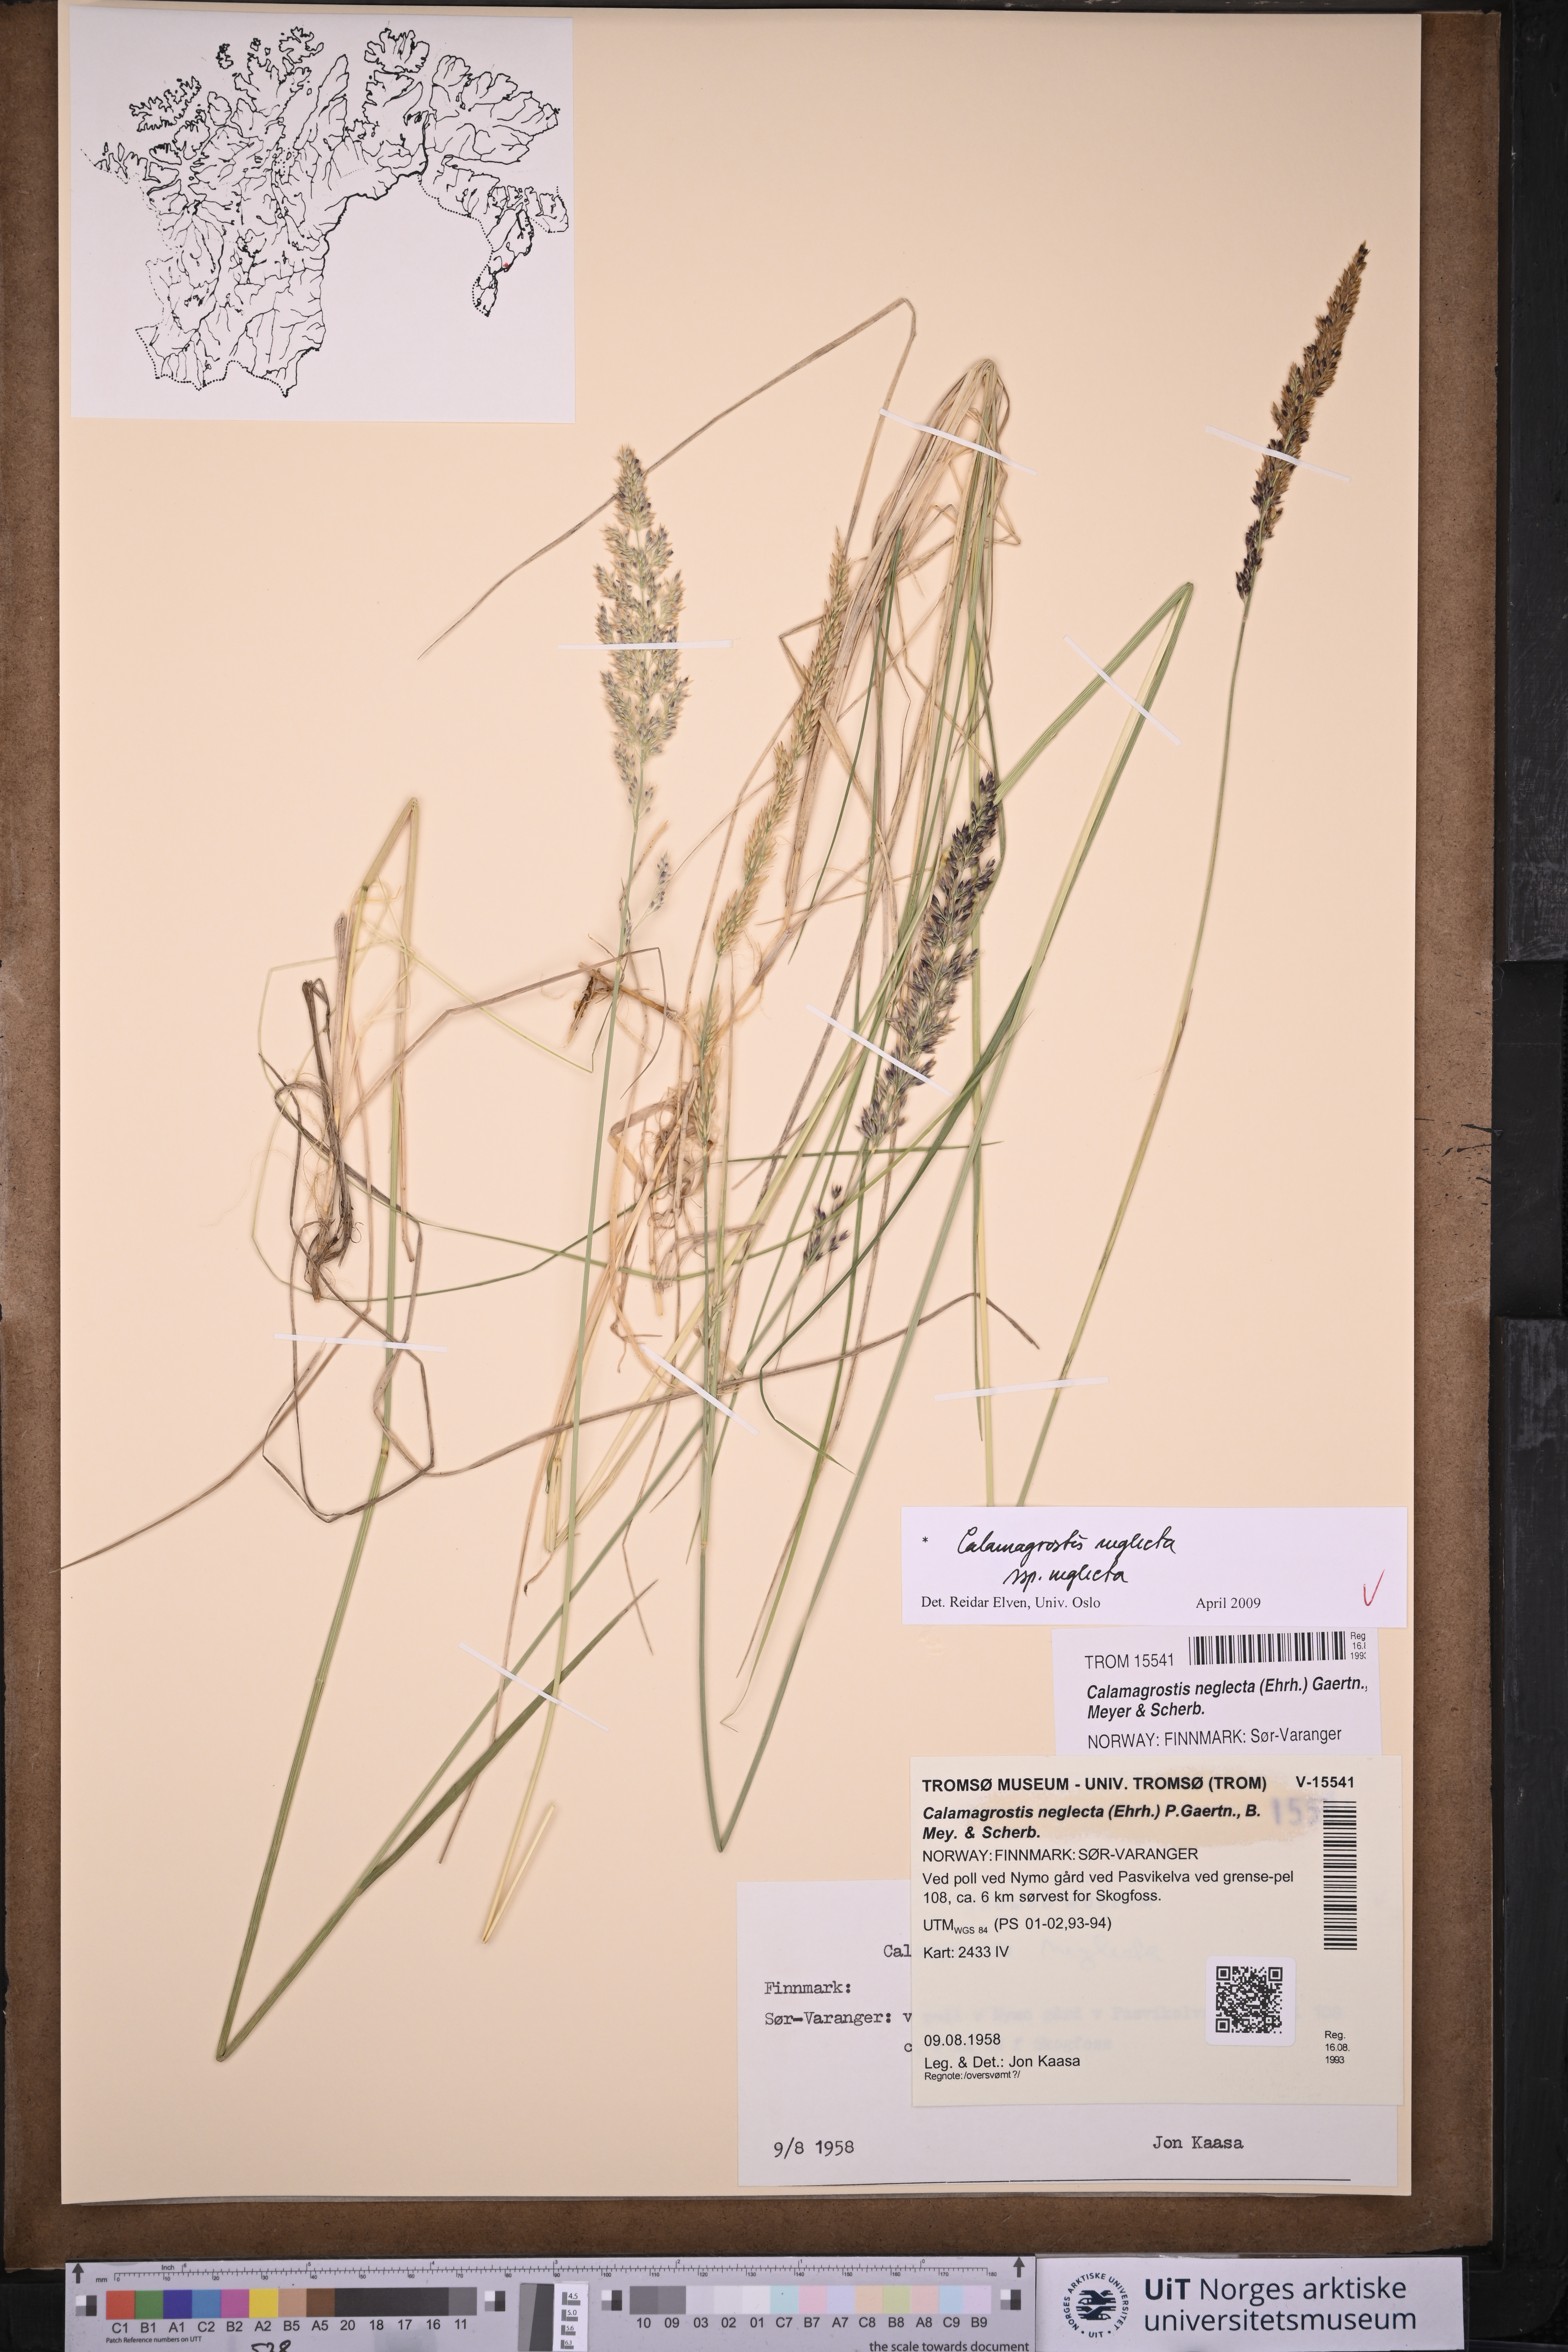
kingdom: Plantae
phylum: Tracheophyta
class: Liliopsida
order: Poales
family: Poaceae
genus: Achnatherum
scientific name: Achnatherum calamagrostis
